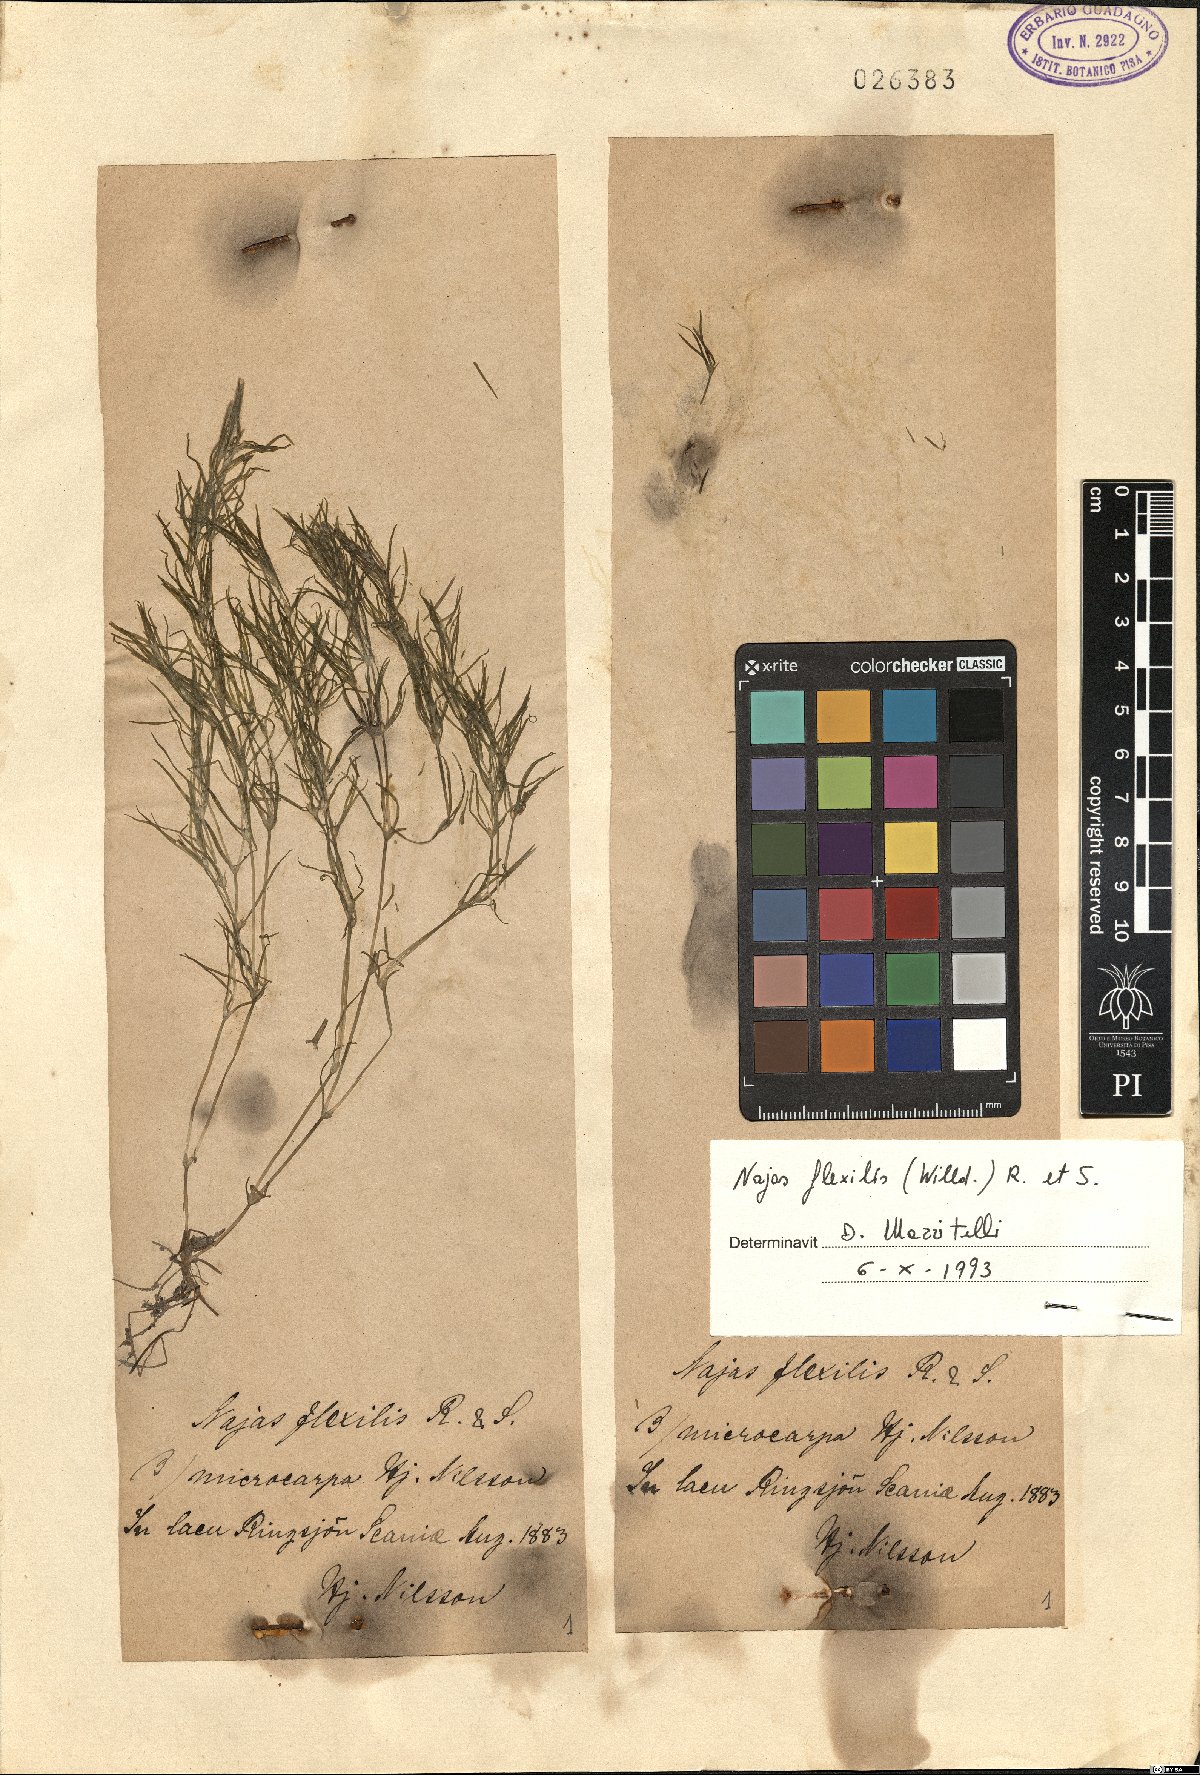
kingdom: Plantae
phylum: Tracheophyta
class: Liliopsida
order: Alismatales
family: Hydrocharitaceae
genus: Najas
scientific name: Najas flexilis
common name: Slender naiad
